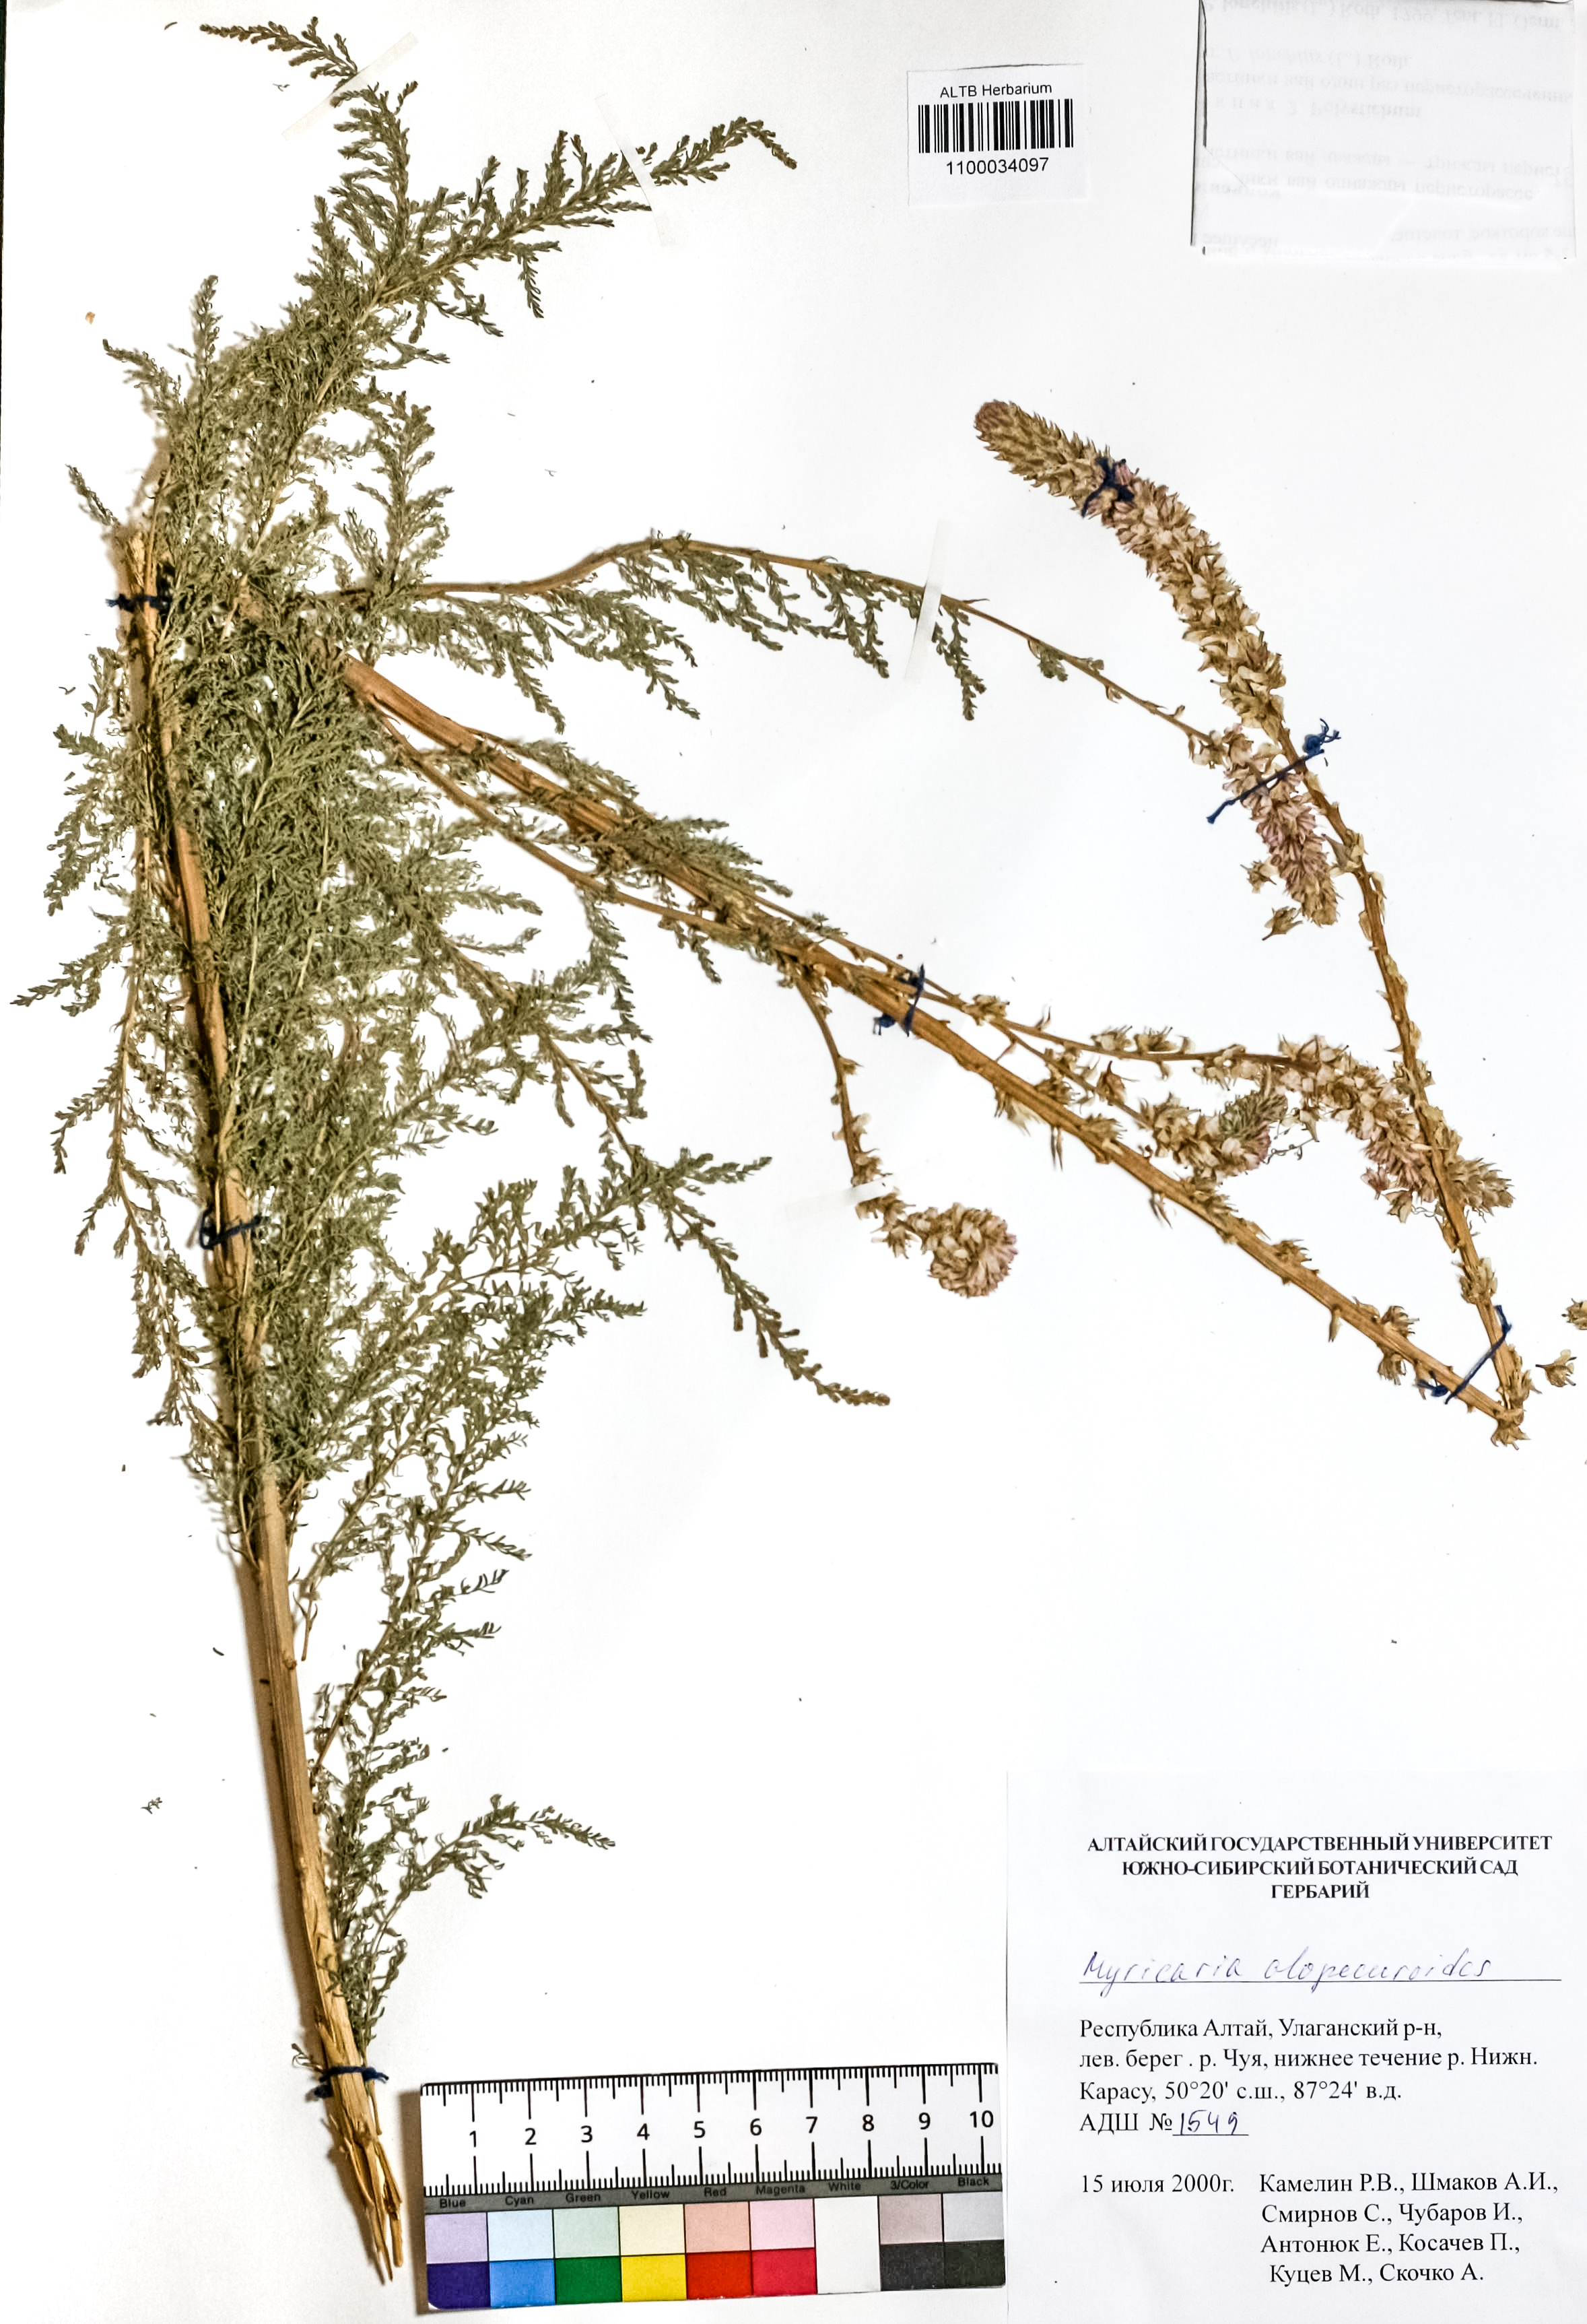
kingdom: Plantae
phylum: Tracheophyta
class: Magnoliopsida
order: Caryophyllales
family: Tamaricaceae
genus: Myricaria
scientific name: Myricaria bracteata
